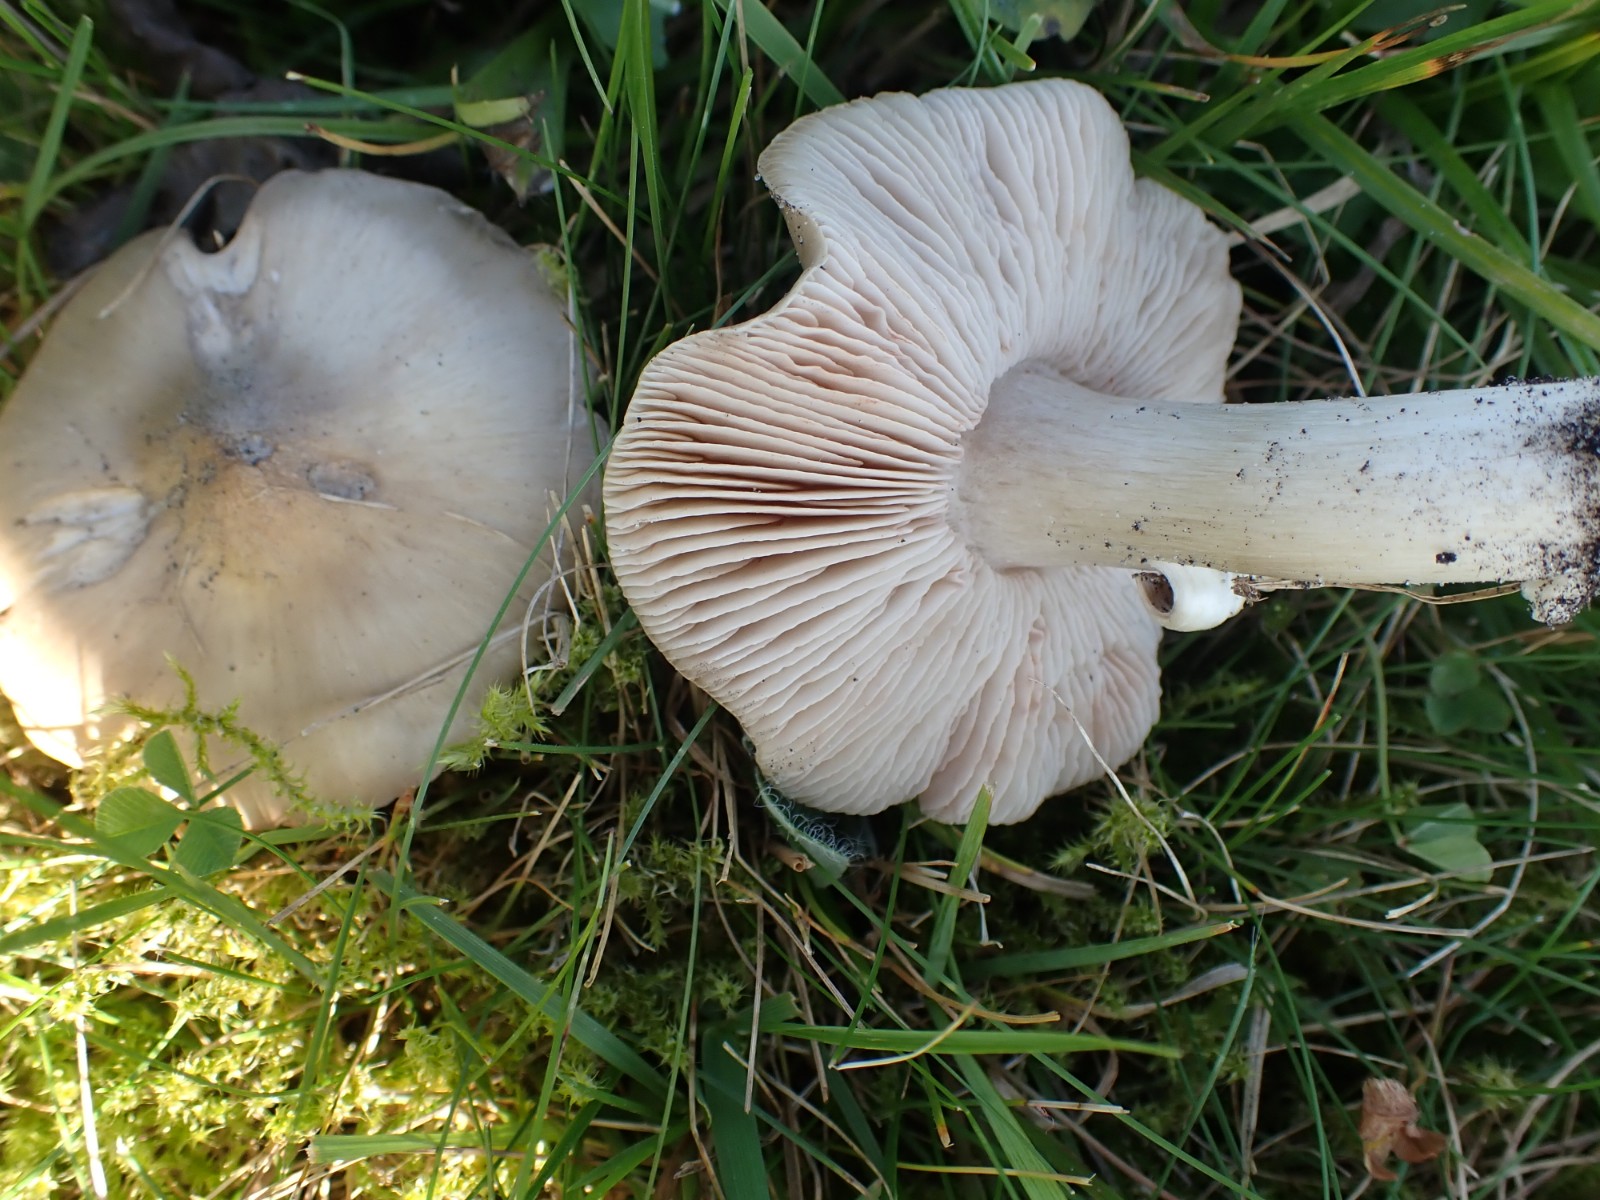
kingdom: Fungi
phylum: Basidiomycota
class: Agaricomycetes
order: Agaricales
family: Entolomataceae
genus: Entoloma
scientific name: Entoloma prunuloides
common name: mel-rødblad
